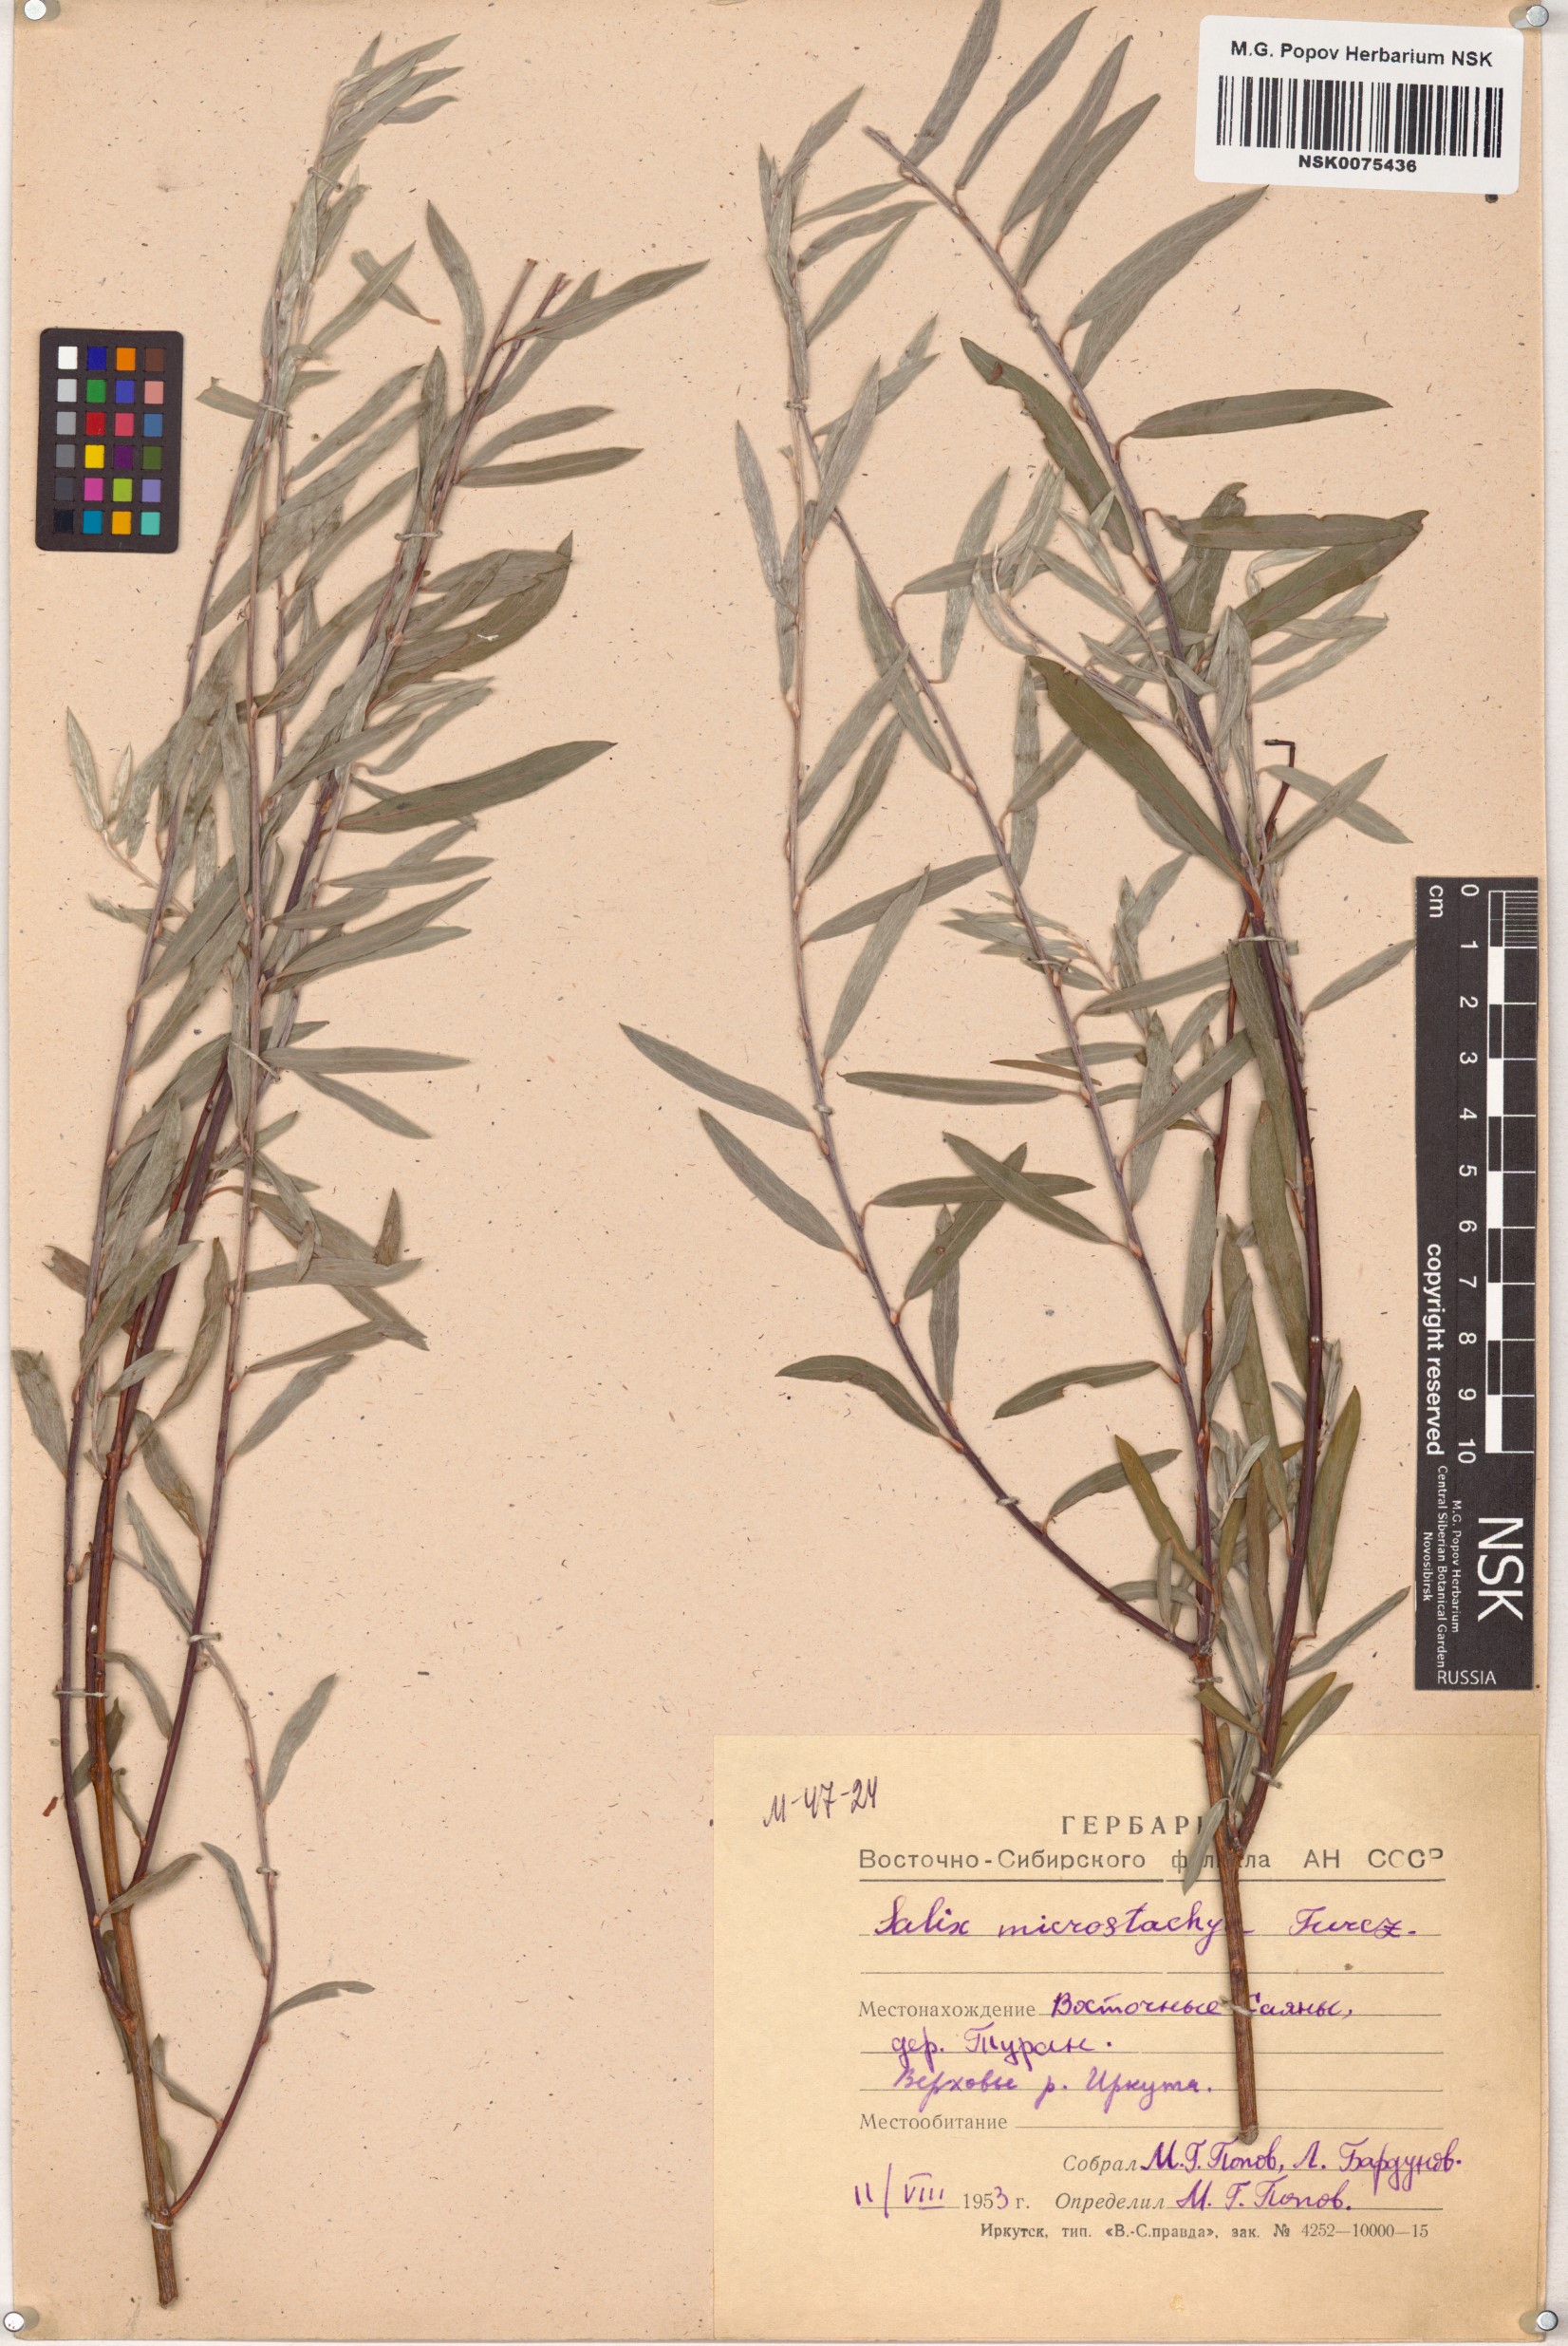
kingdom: Plantae
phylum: Tracheophyta
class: Magnoliopsida
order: Malpighiales
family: Salicaceae
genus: Salix
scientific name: Salix microstachya
